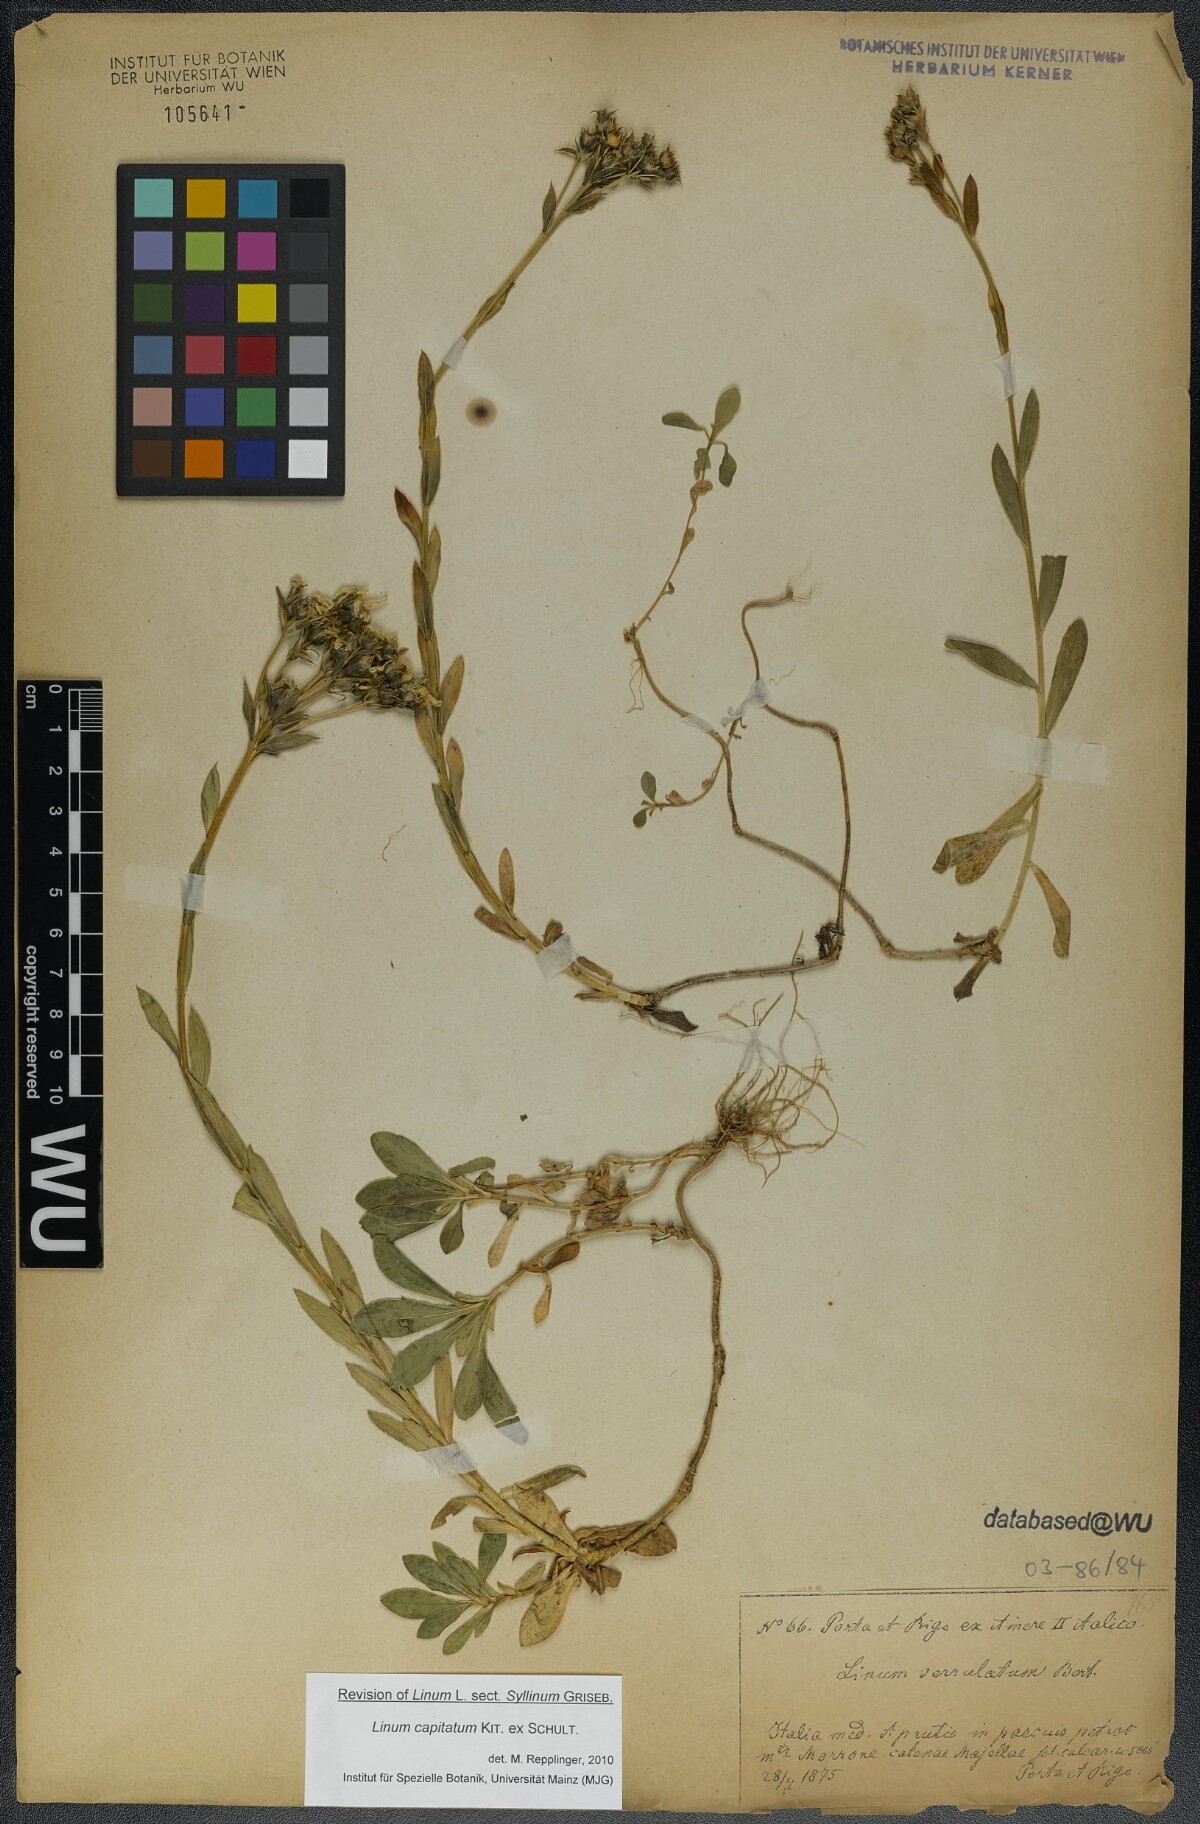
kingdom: Plantae
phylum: Tracheophyta
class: Magnoliopsida
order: Malpighiales
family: Linaceae
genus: Linum
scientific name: Linum capitatum
